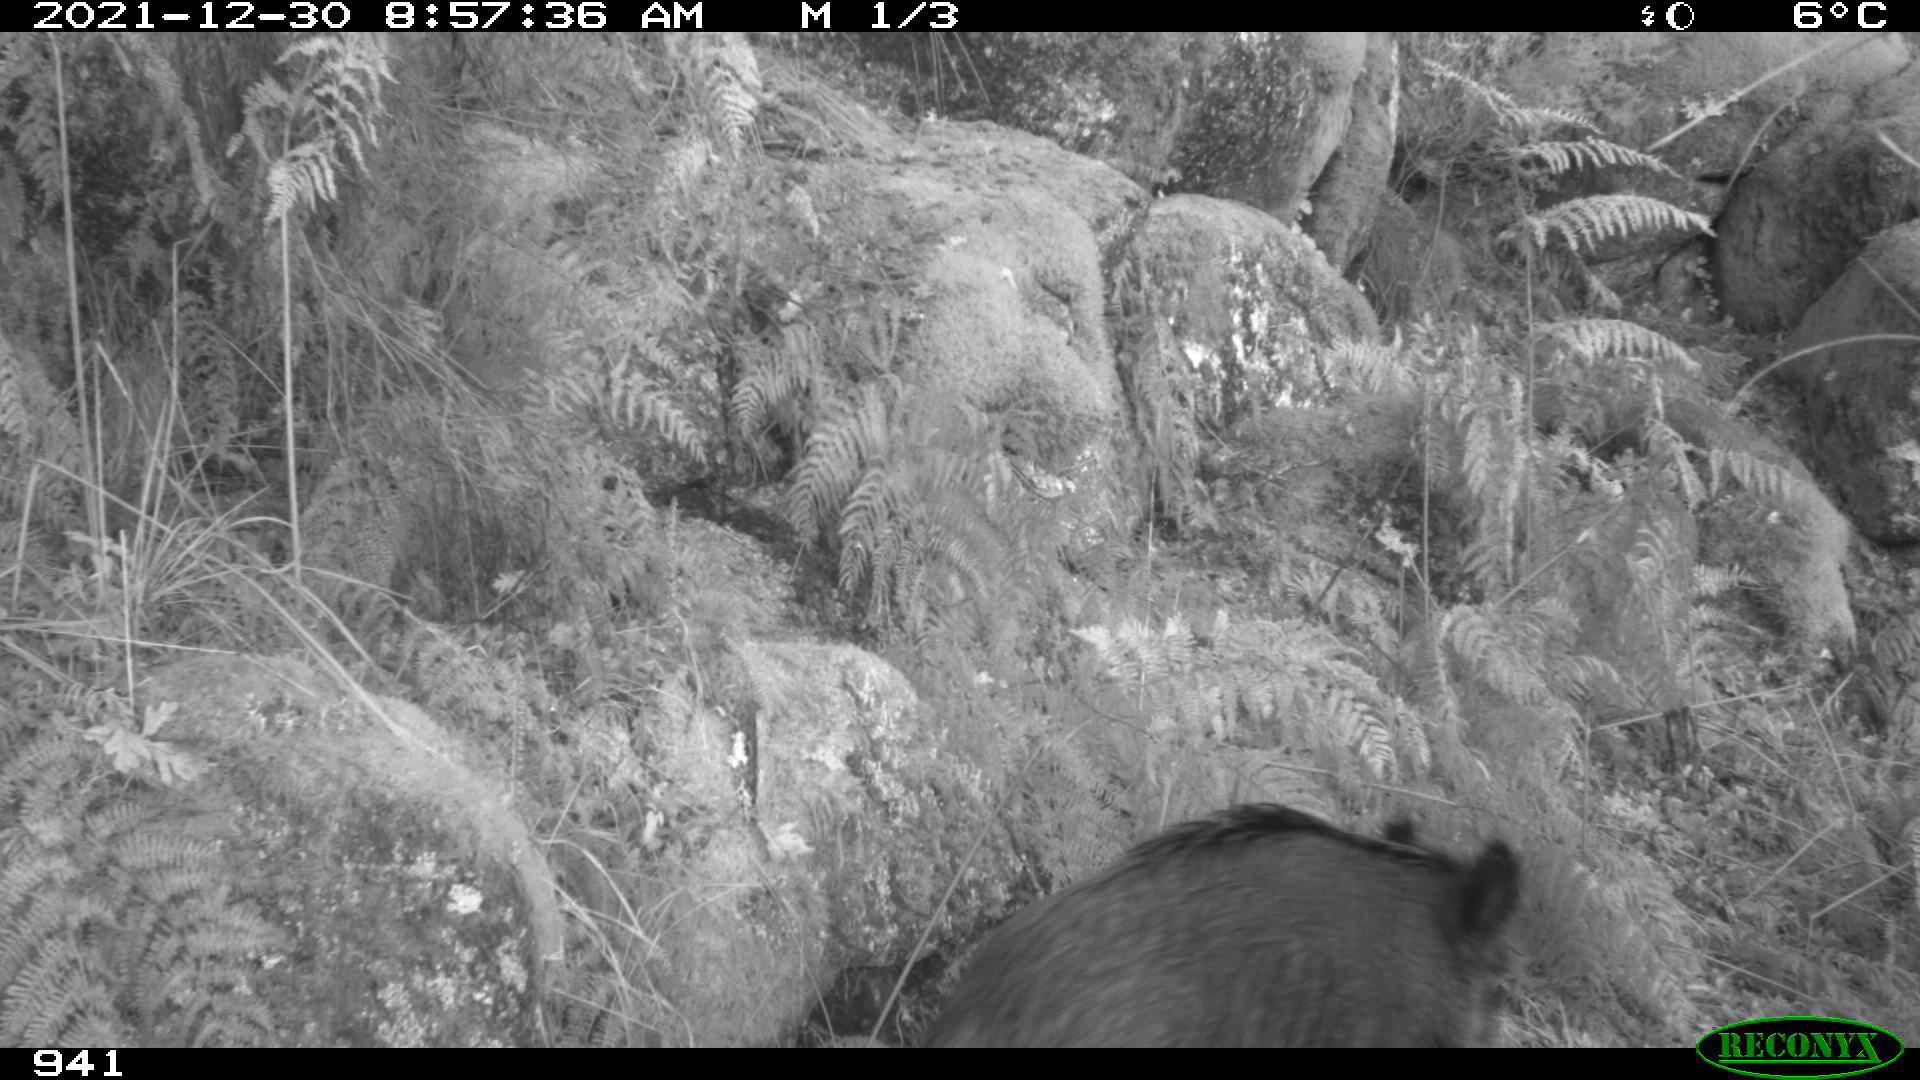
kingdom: Animalia
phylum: Chordata
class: Mammalia
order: Artiodactyla
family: Suidae
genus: Sus
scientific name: Sus scrofa
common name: Wild boar
